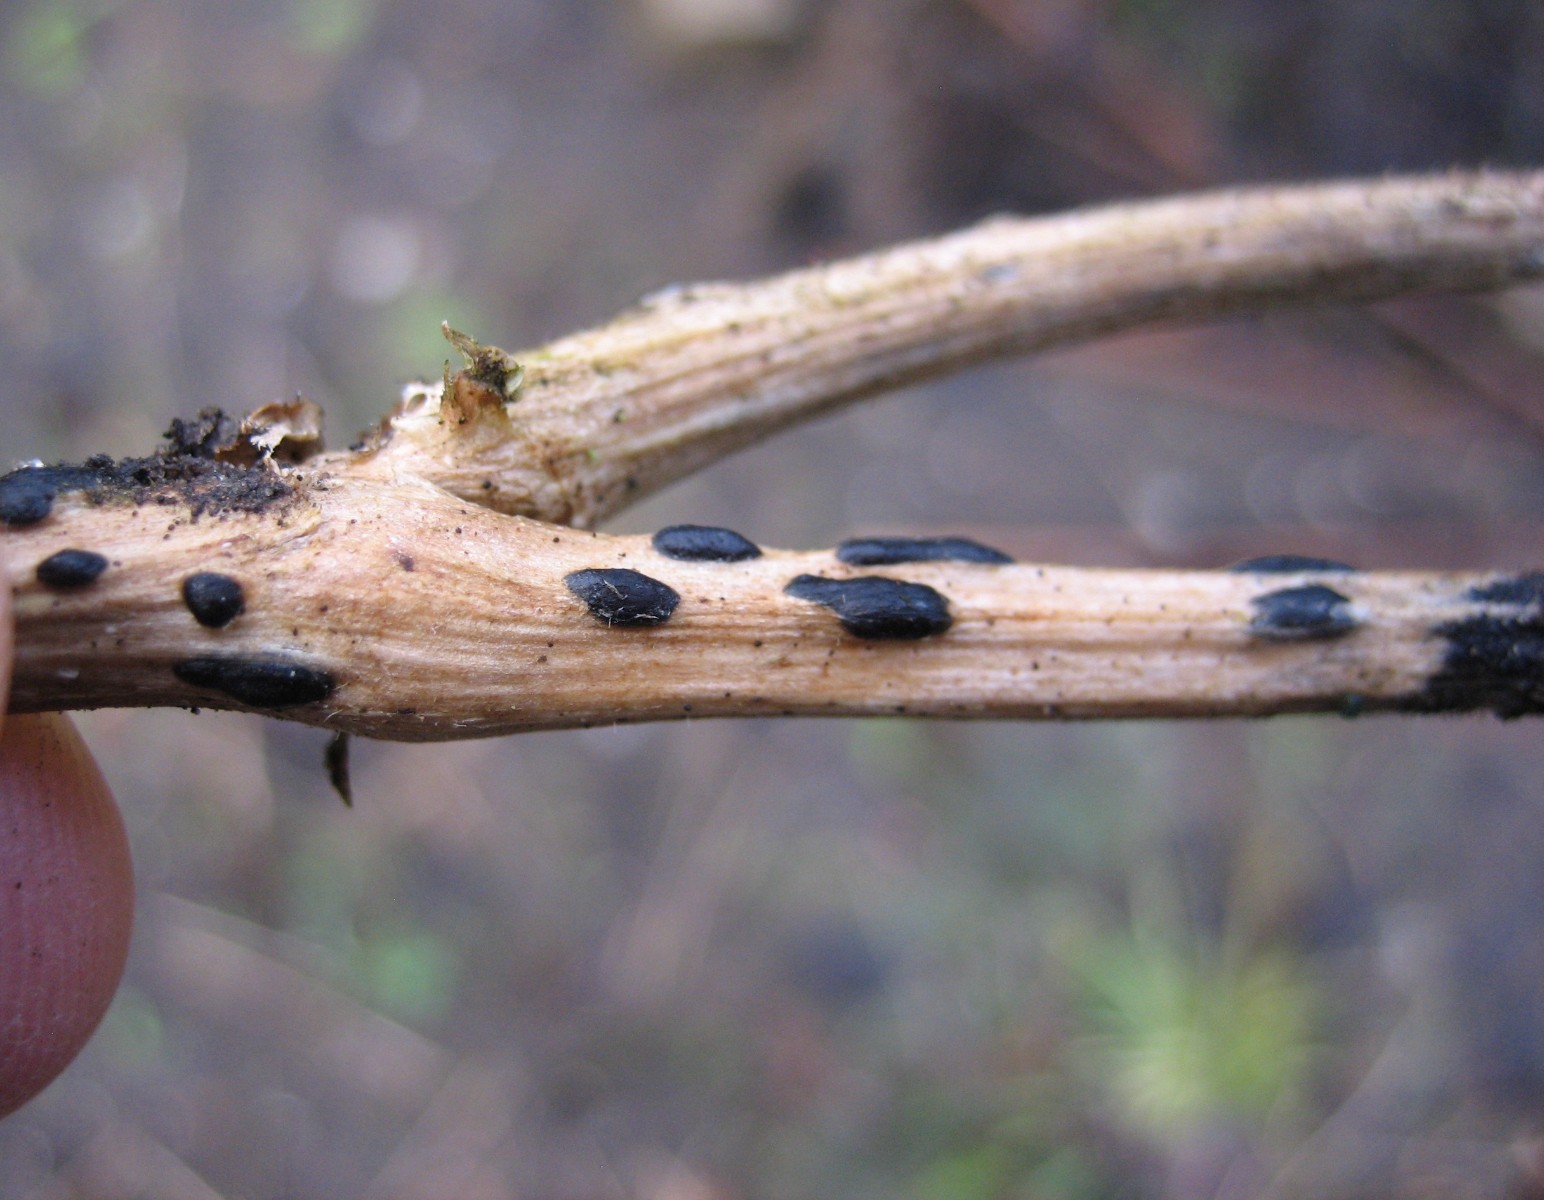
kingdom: Fungi
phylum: Basidiomycota
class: Agaricomycetes
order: Agaricales
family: Typhulaceae
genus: Sclerotium
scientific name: Sclerotium
